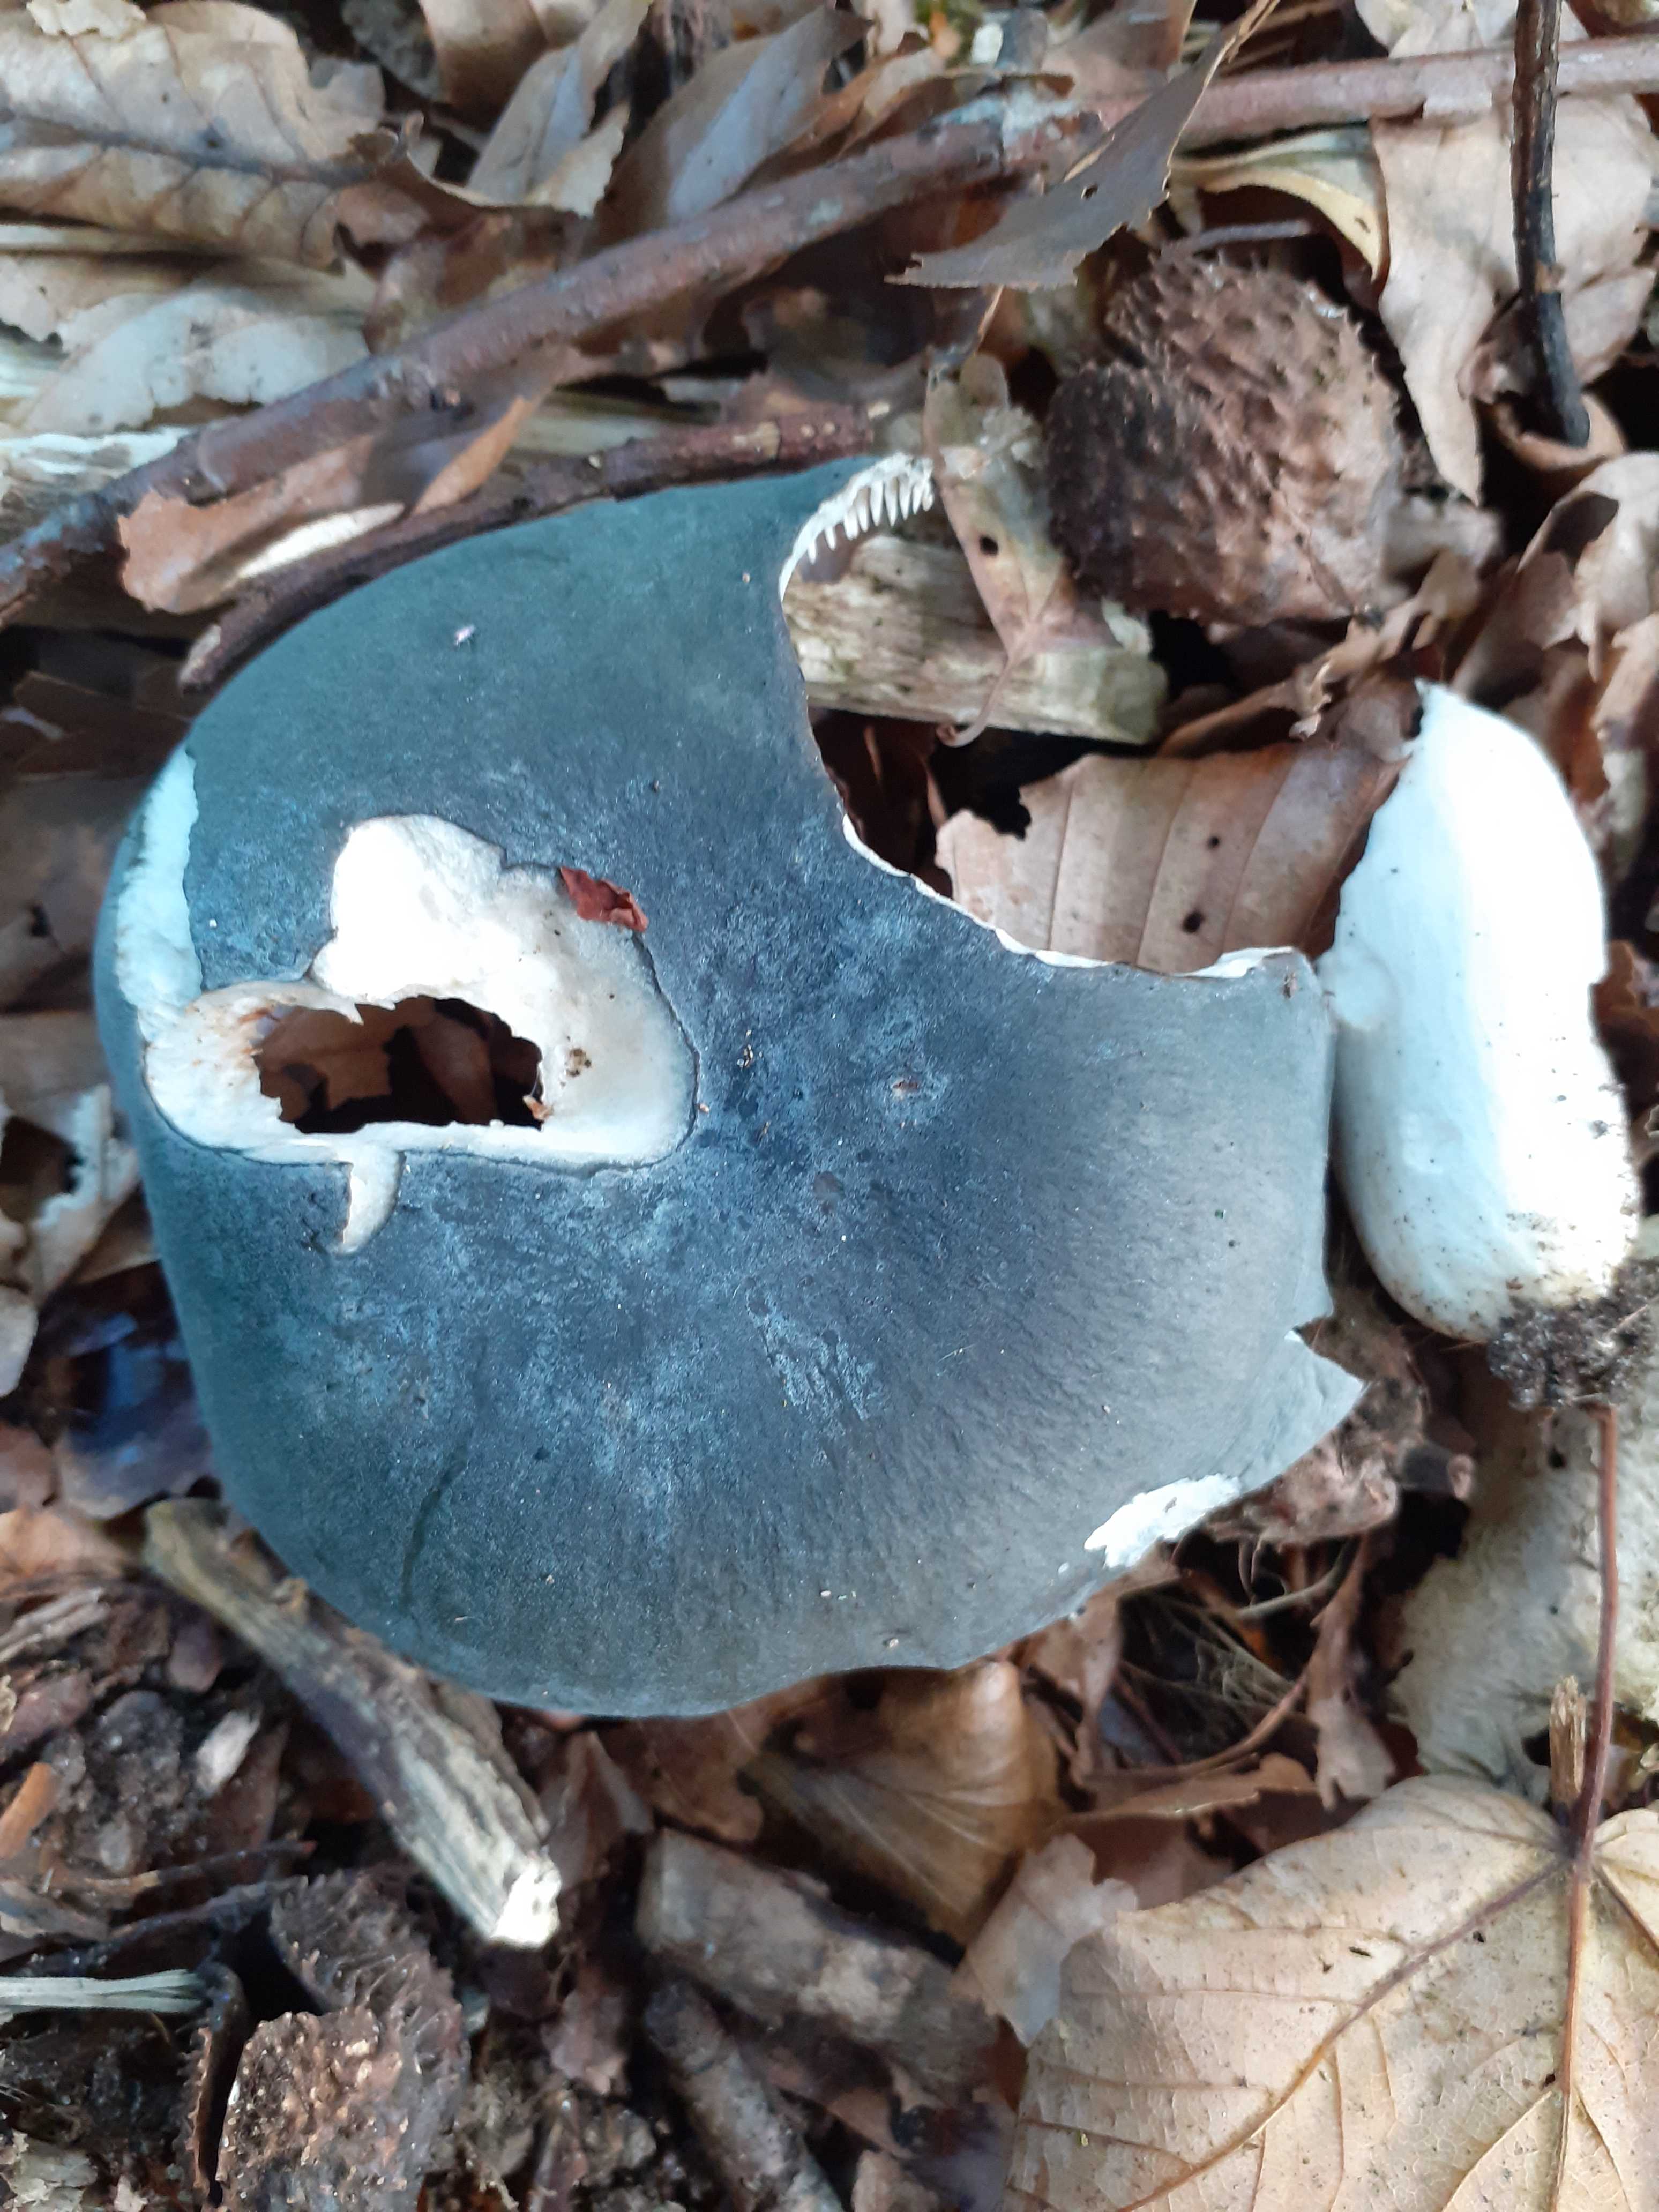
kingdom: Fungi
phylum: Basidiomycota
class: Agaricomycetes
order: Russulales
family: Russulaceae
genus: Russula
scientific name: Russula parazurea
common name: blågrå skørhat
